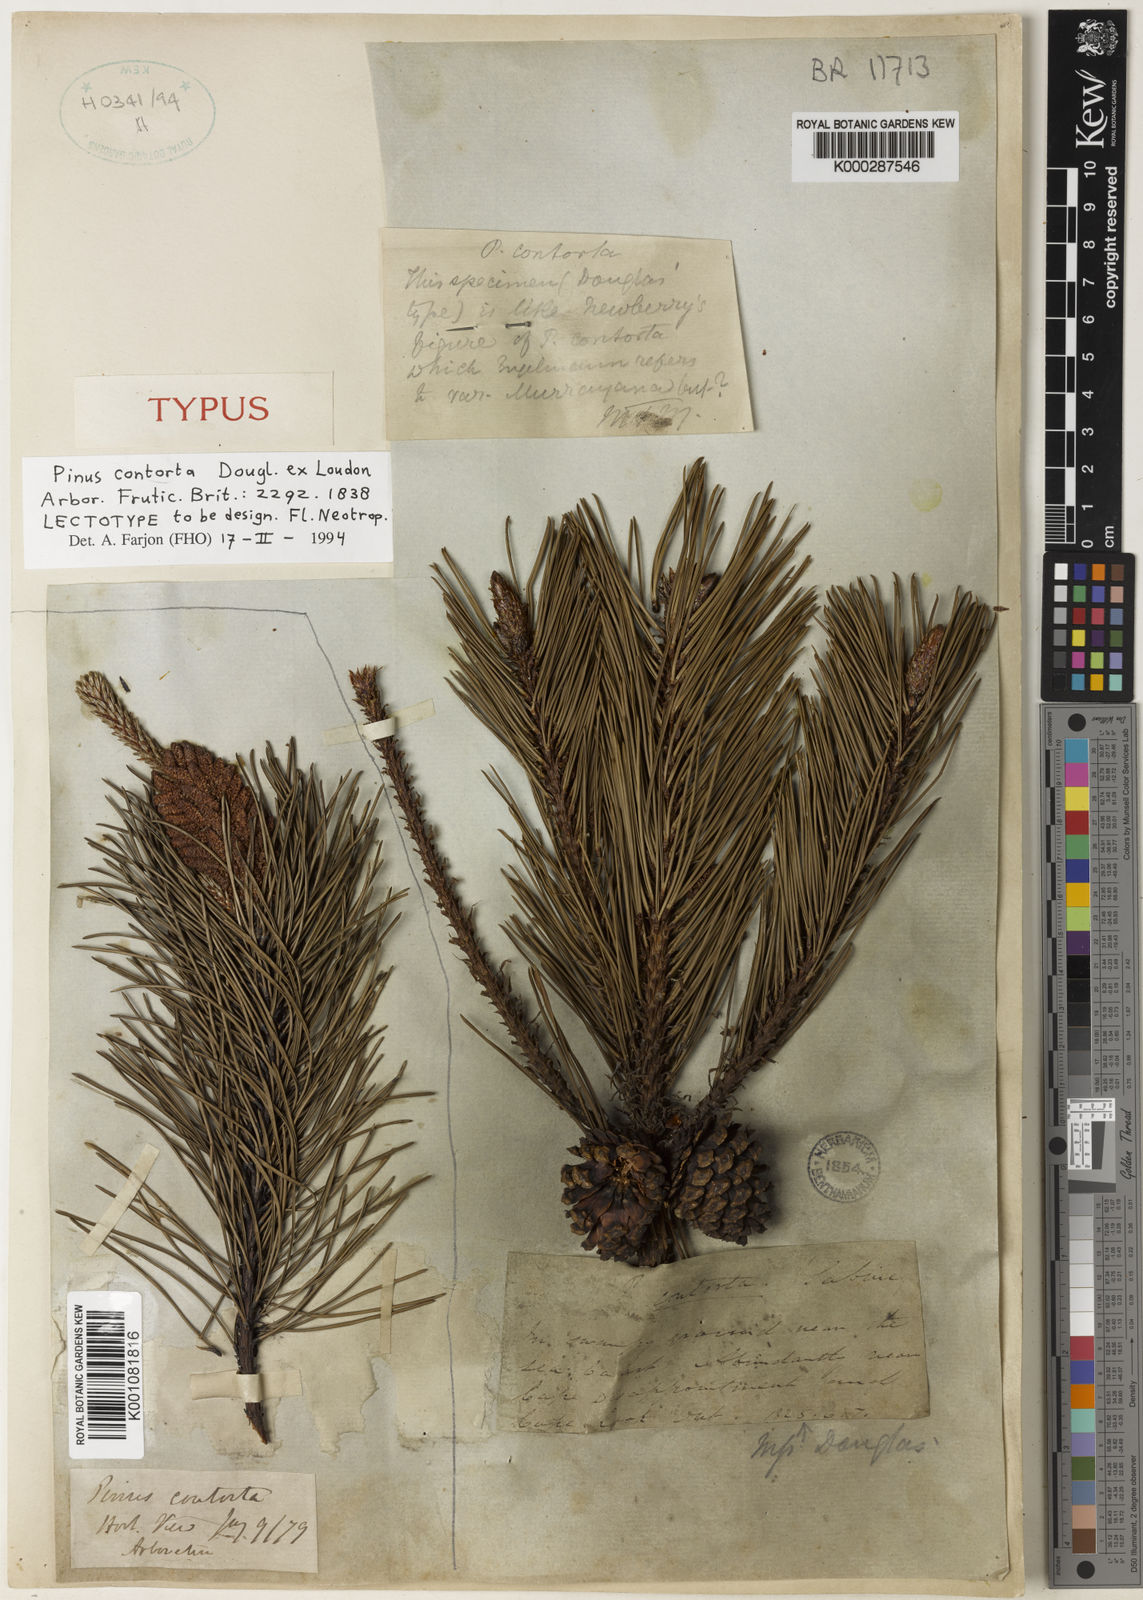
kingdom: Plantae
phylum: Tracheophyta
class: Pinopsida
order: Pinales
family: Pinaceae
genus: Pinus
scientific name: Pinus contorta
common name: Lodgepole pine
